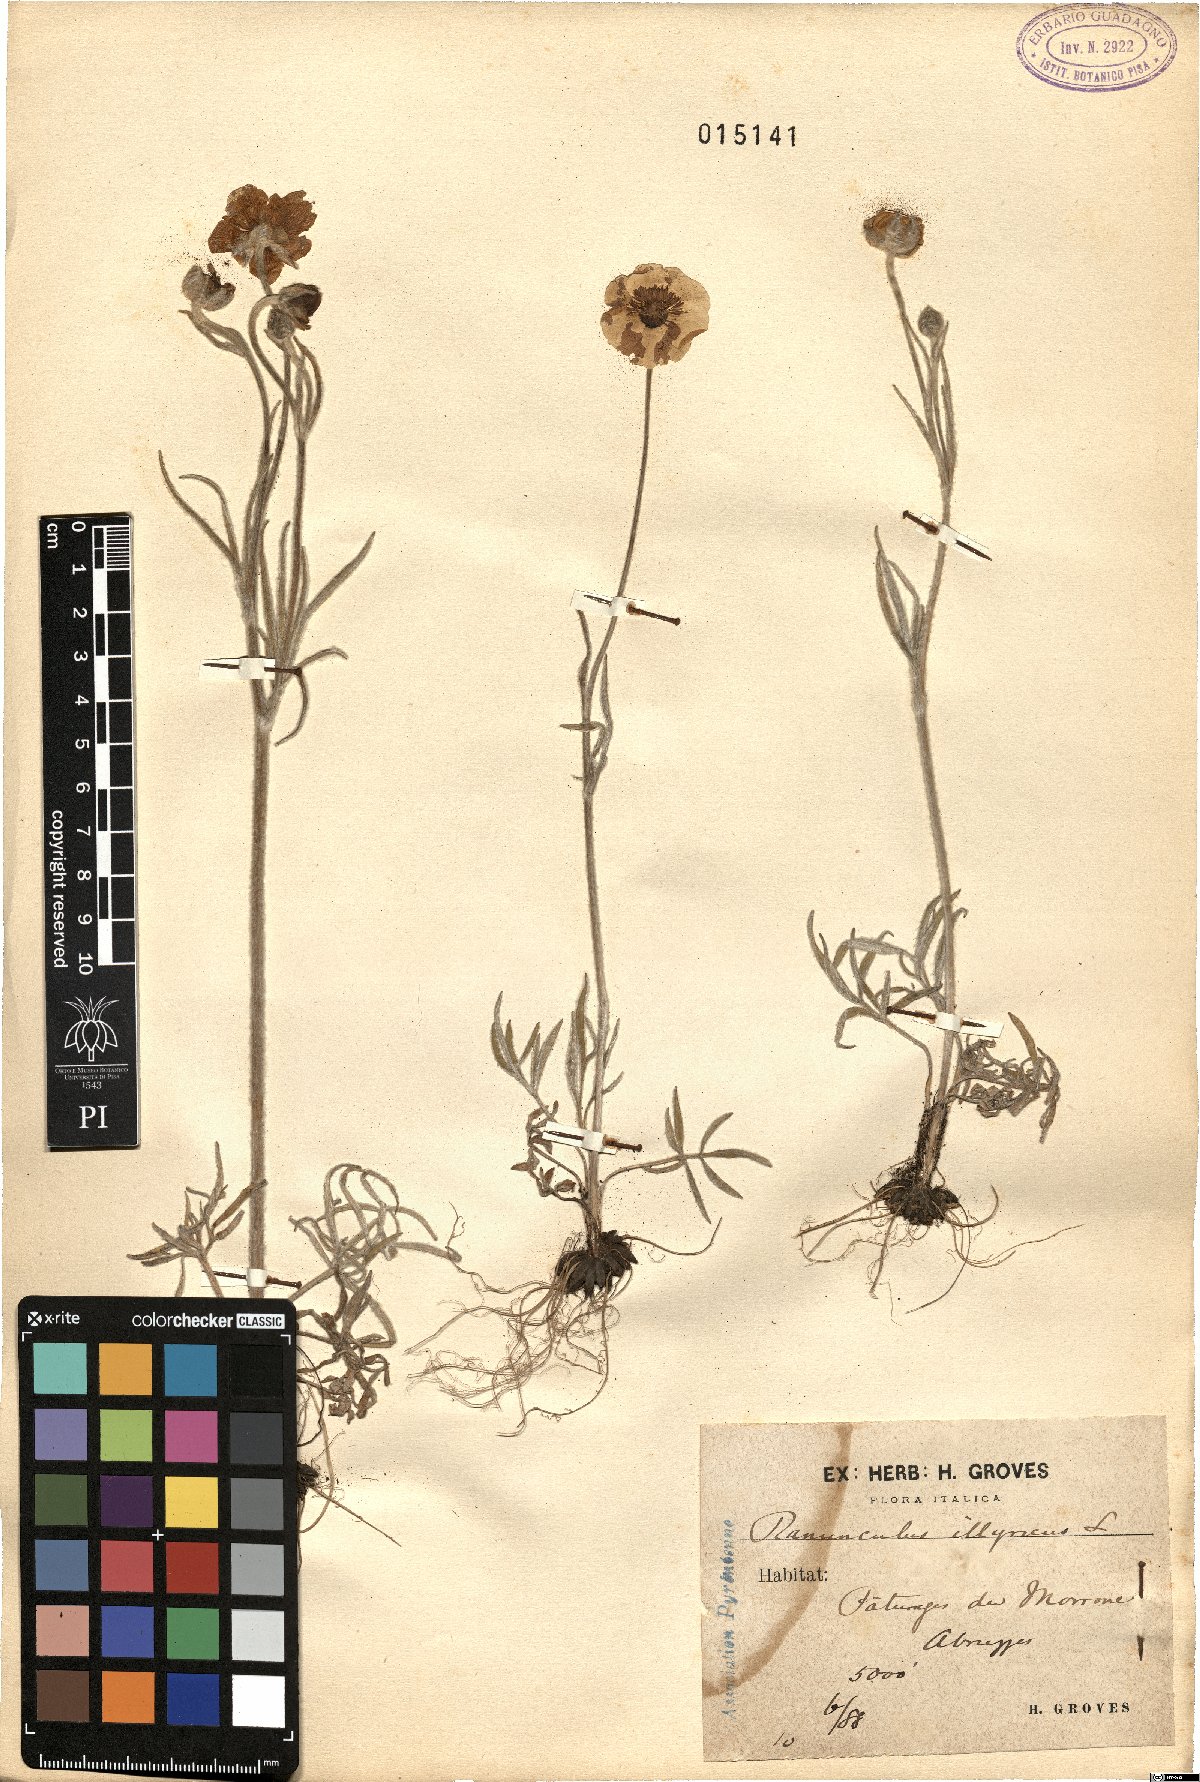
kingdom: Plantae
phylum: Tracheophyta
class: Magnoliopsida
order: Ranunculales
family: Ranunculaceae
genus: Ranunculus
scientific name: Ranunculus illyricus
